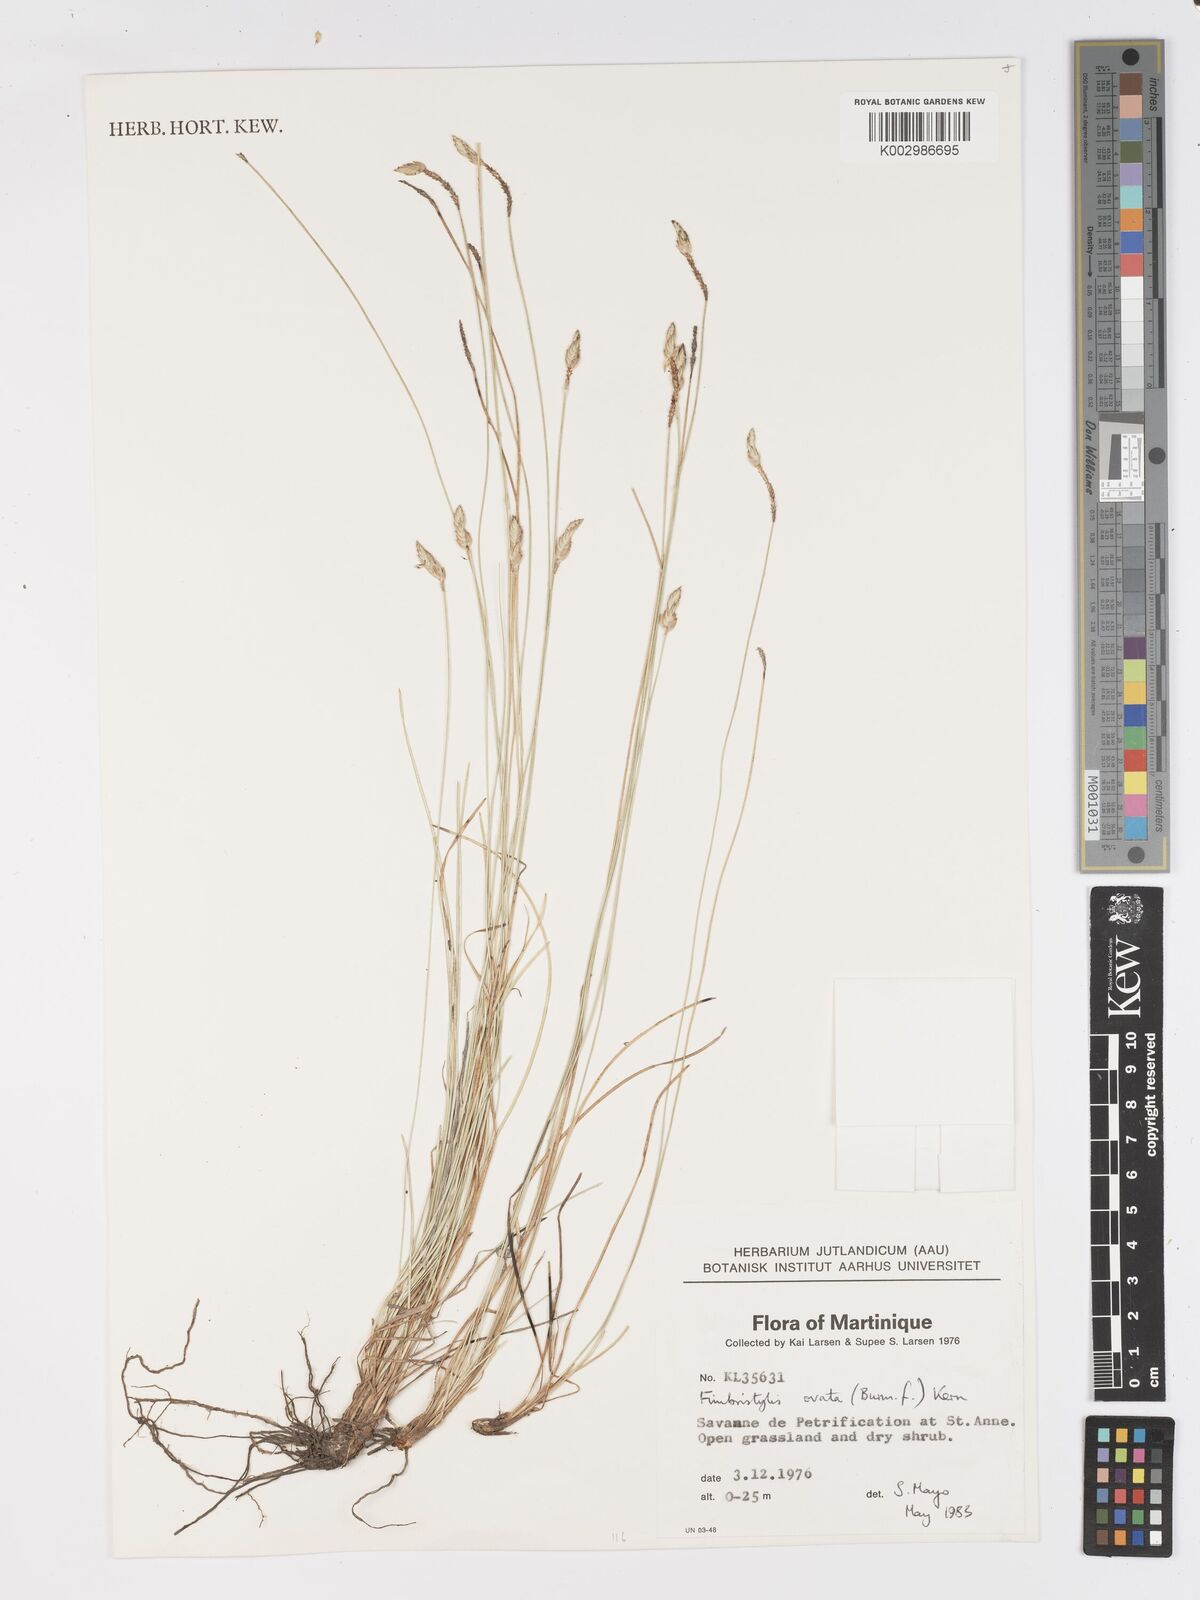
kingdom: Plantae
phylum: Tracheophyta
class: Liliopsida
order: Poales
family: Cyperaceae
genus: Abildgaardia
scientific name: Abildgaardia ovata
